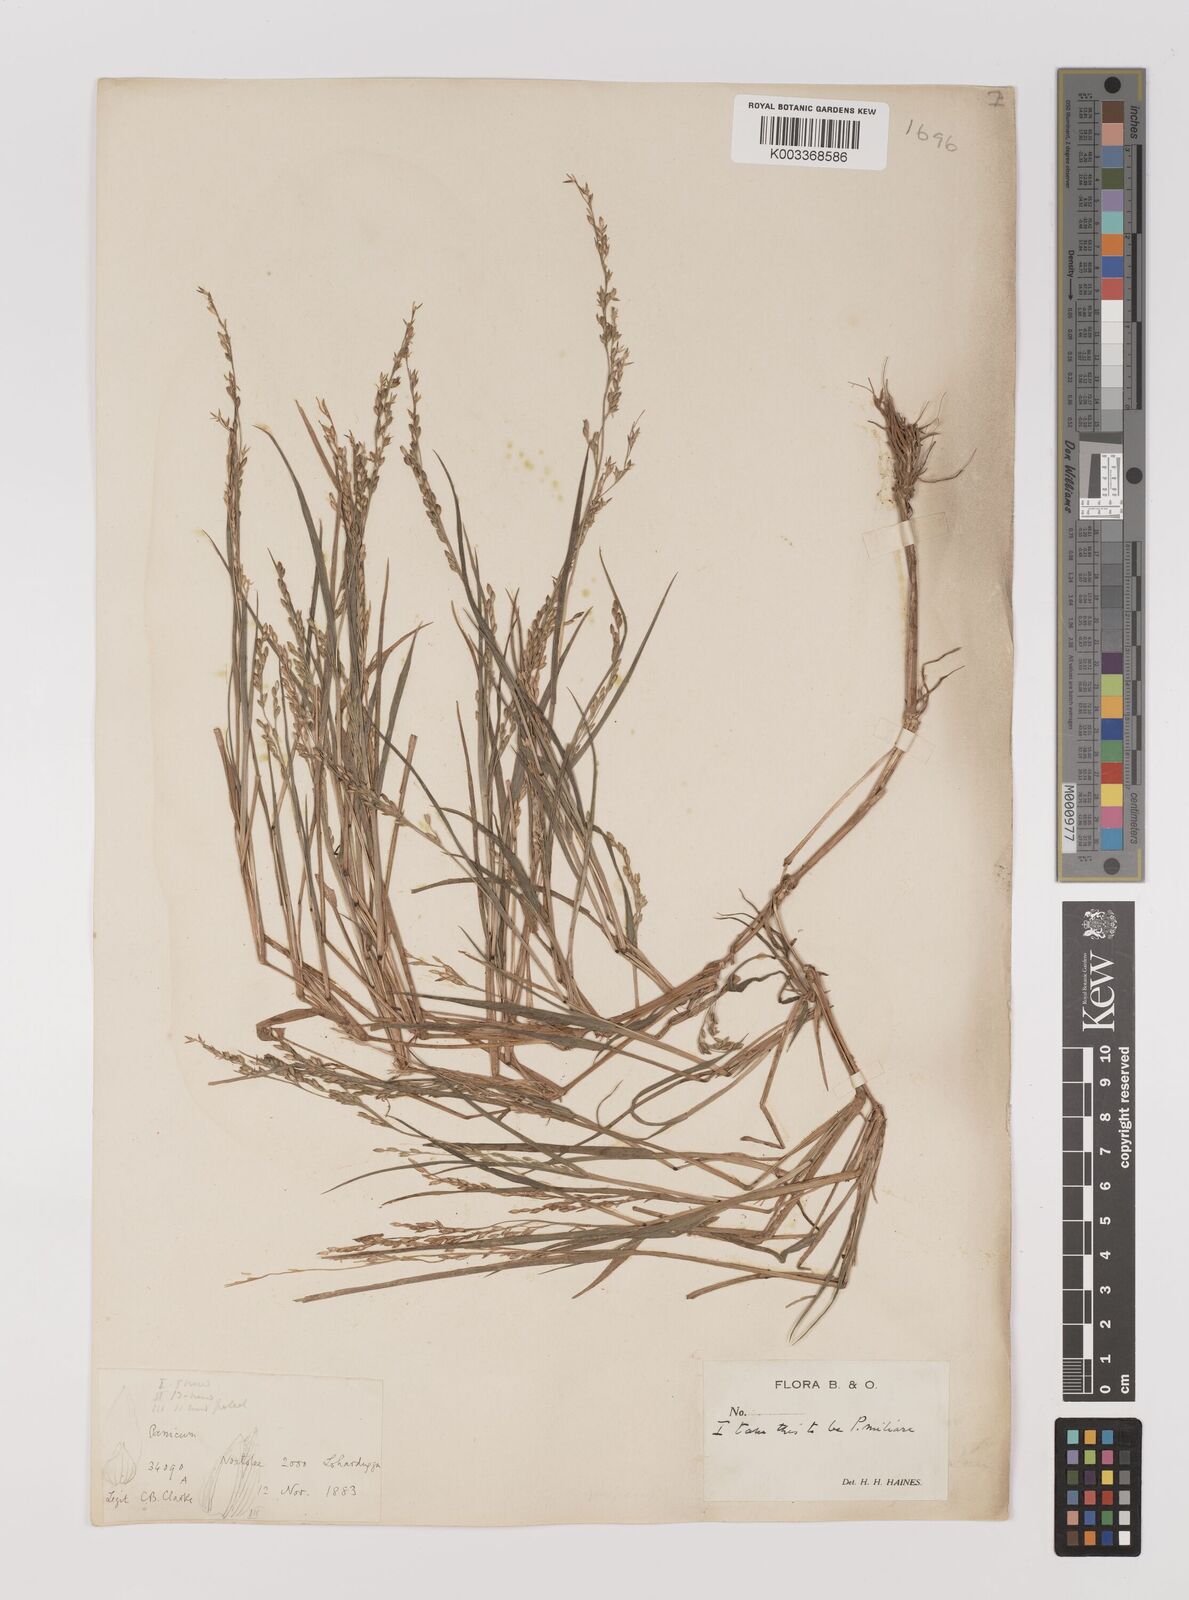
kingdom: Plantae
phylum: Tracheophyta
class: Liliopsida
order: Poales
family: Poaceae
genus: Panicum
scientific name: Panicum sumatrense
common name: Little millet
